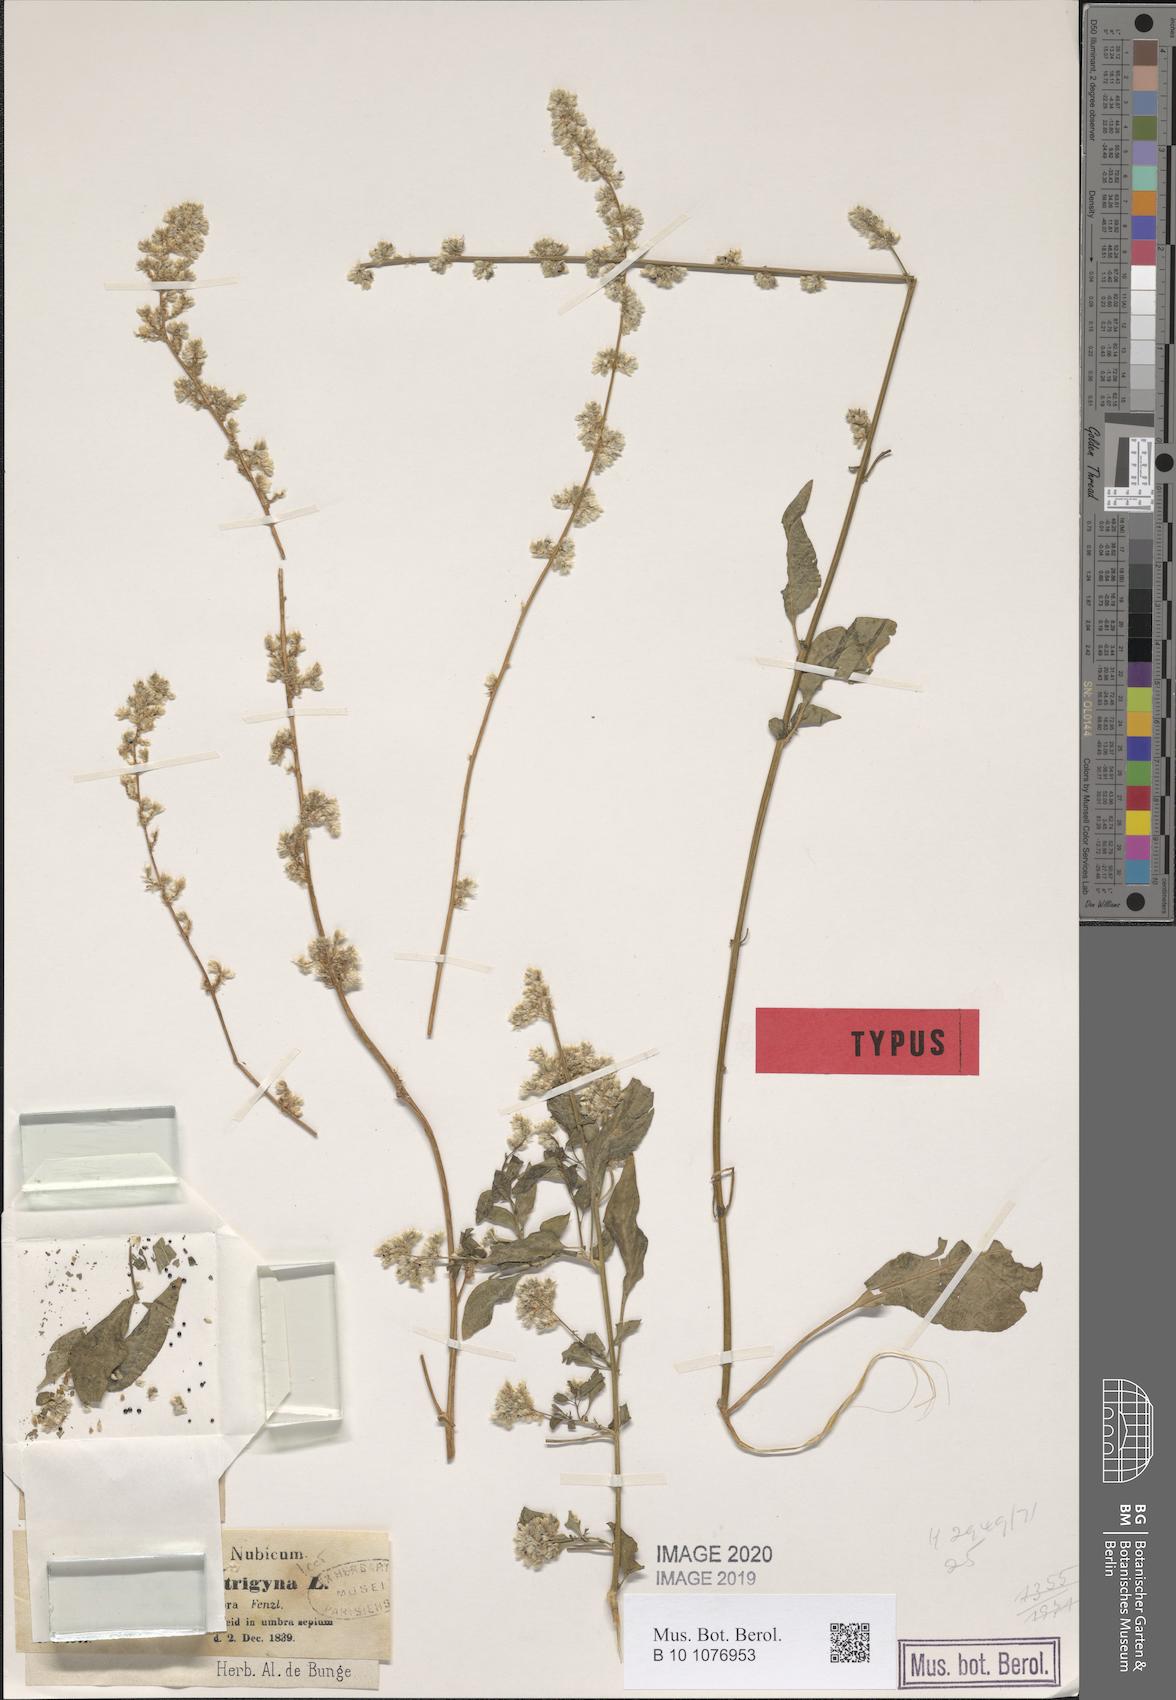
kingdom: Plantae
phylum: Tracheophyta
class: Magnoliopsida
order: Caryophyllales
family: Amaranthaceae
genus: Celosia
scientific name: Celosia trigyna
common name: Woolflower
